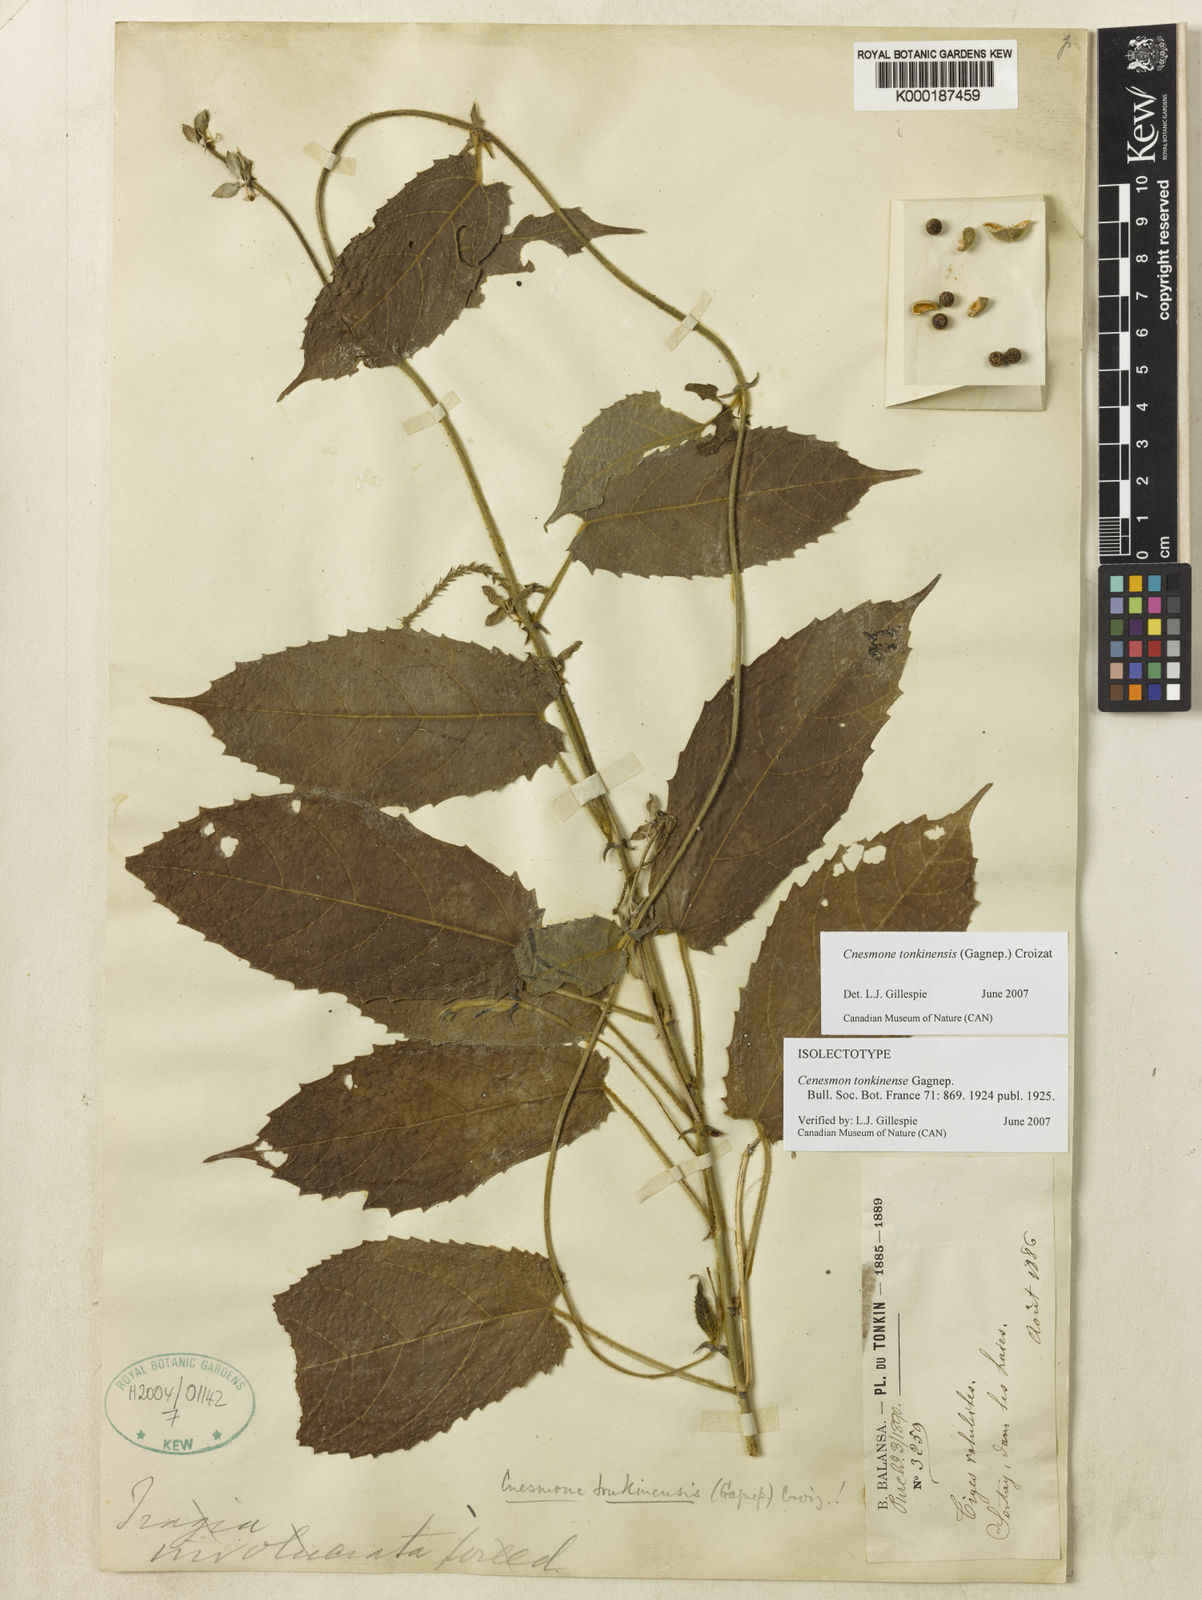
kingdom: Plantae
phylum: Tracheophyta
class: Magnoliopsida
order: Malpighiales
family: Euphorbiaceae
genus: Cnesmone
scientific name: Cnesmone tonkinensis
